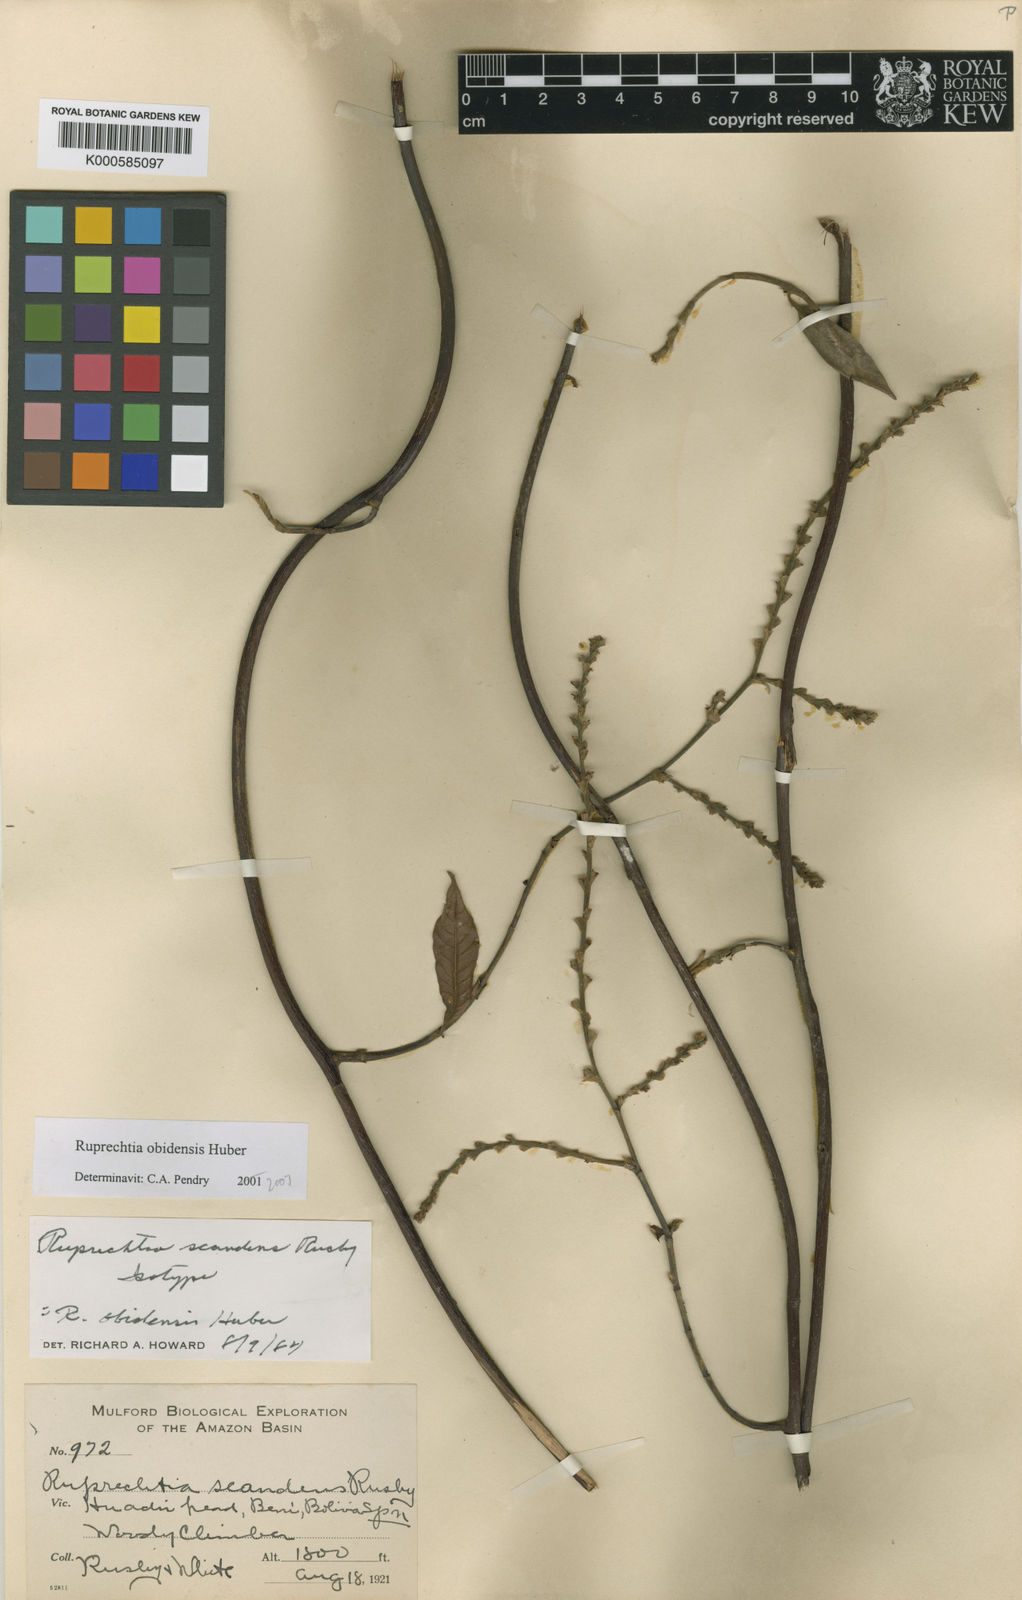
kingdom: Plantae
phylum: Tracheophyta
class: Magnoliopsida
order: Caryophyllales
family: Polygonaceae
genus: Magoniella
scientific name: Magoniella obidensis
